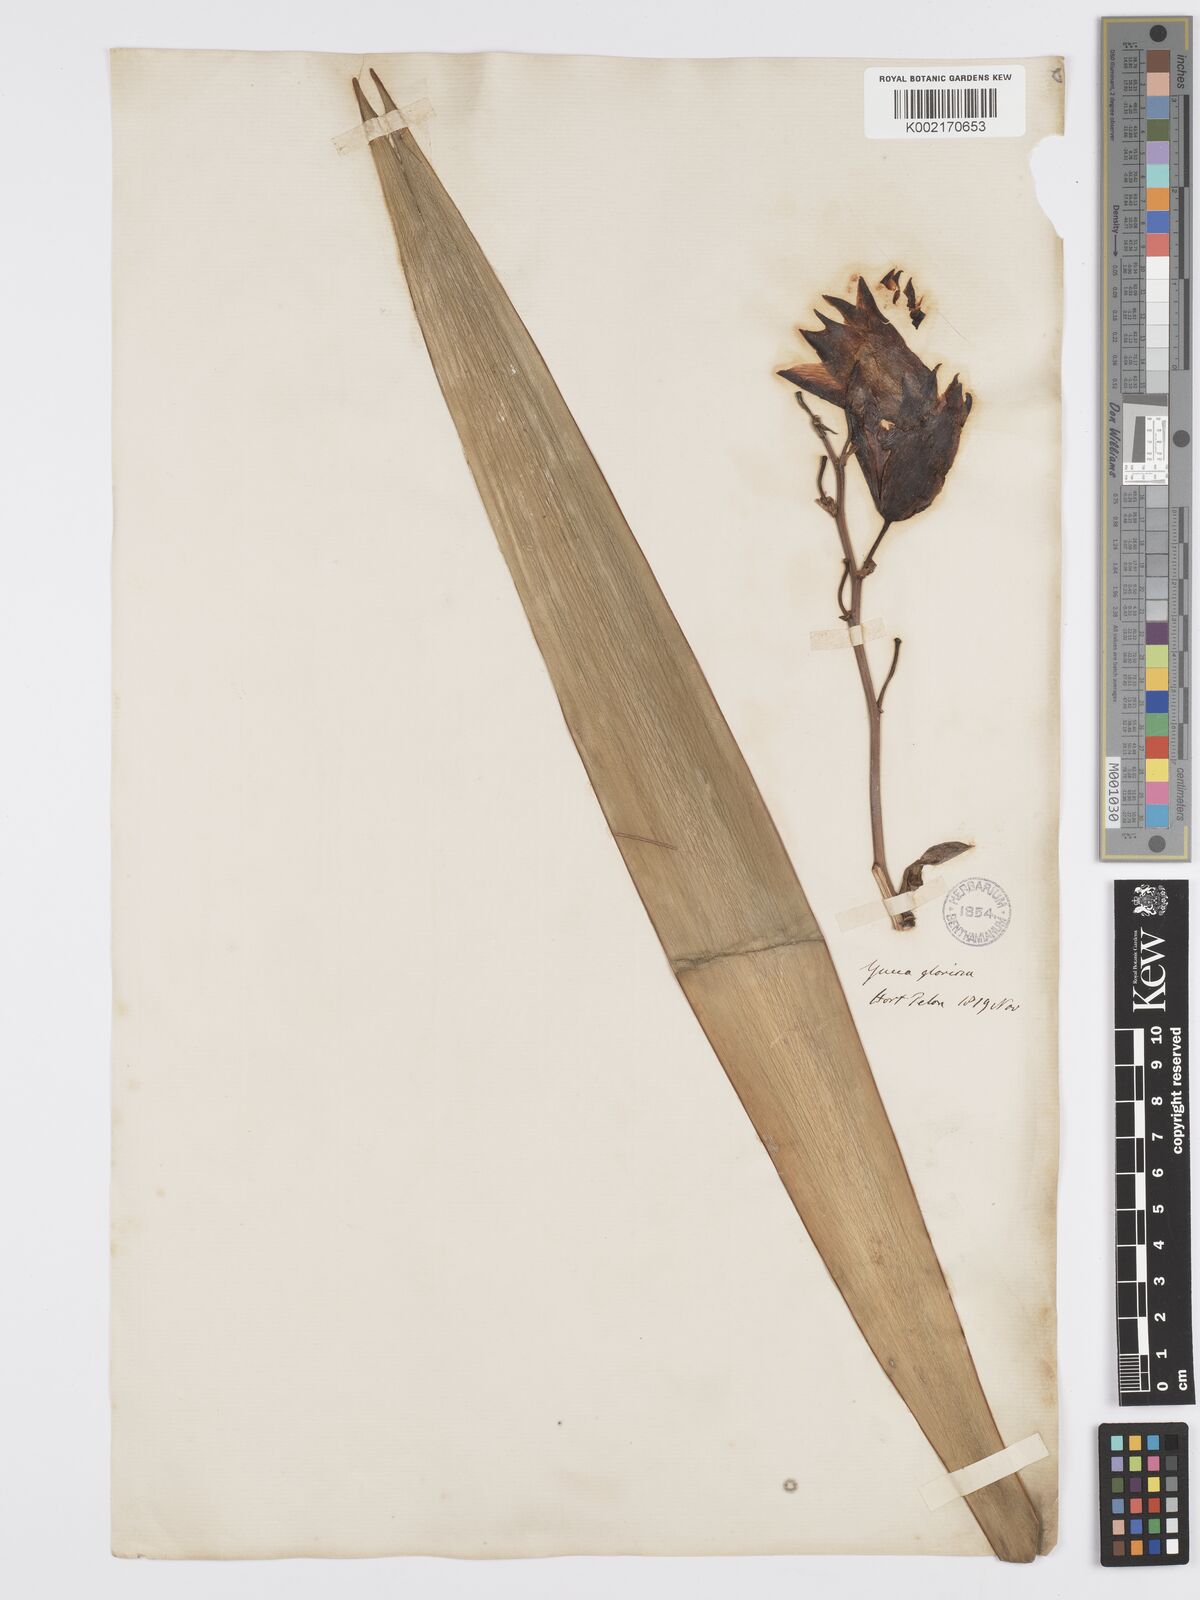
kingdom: Plantae
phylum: Tracheophyta
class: Liliopsida
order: Asparagales
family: Asparagaceae
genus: Yucca
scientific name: Yucca gloriosa
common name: Spanish-dagger
